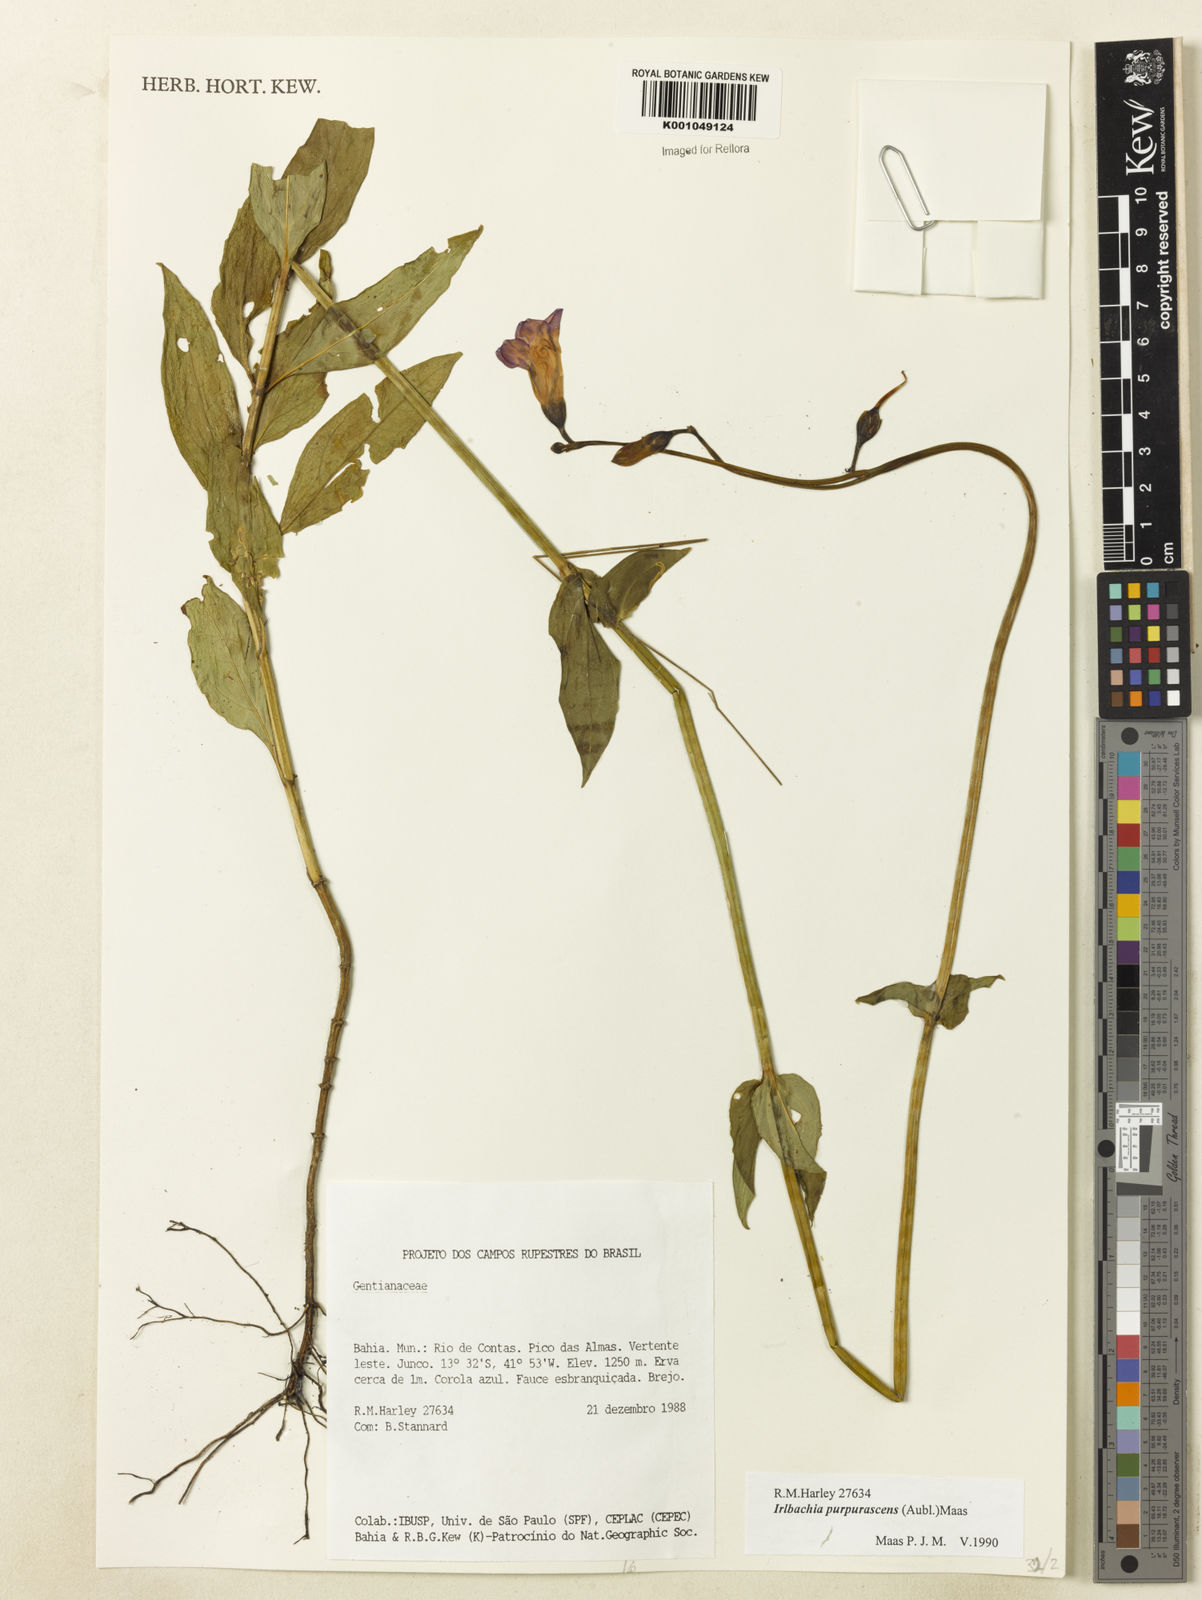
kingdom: Plantae
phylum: Tracheophyta
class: Magnoliopsida
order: Gentianales
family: Gentianaceae
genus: Chelonanthus
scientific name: Chelonanthus purpurascens
